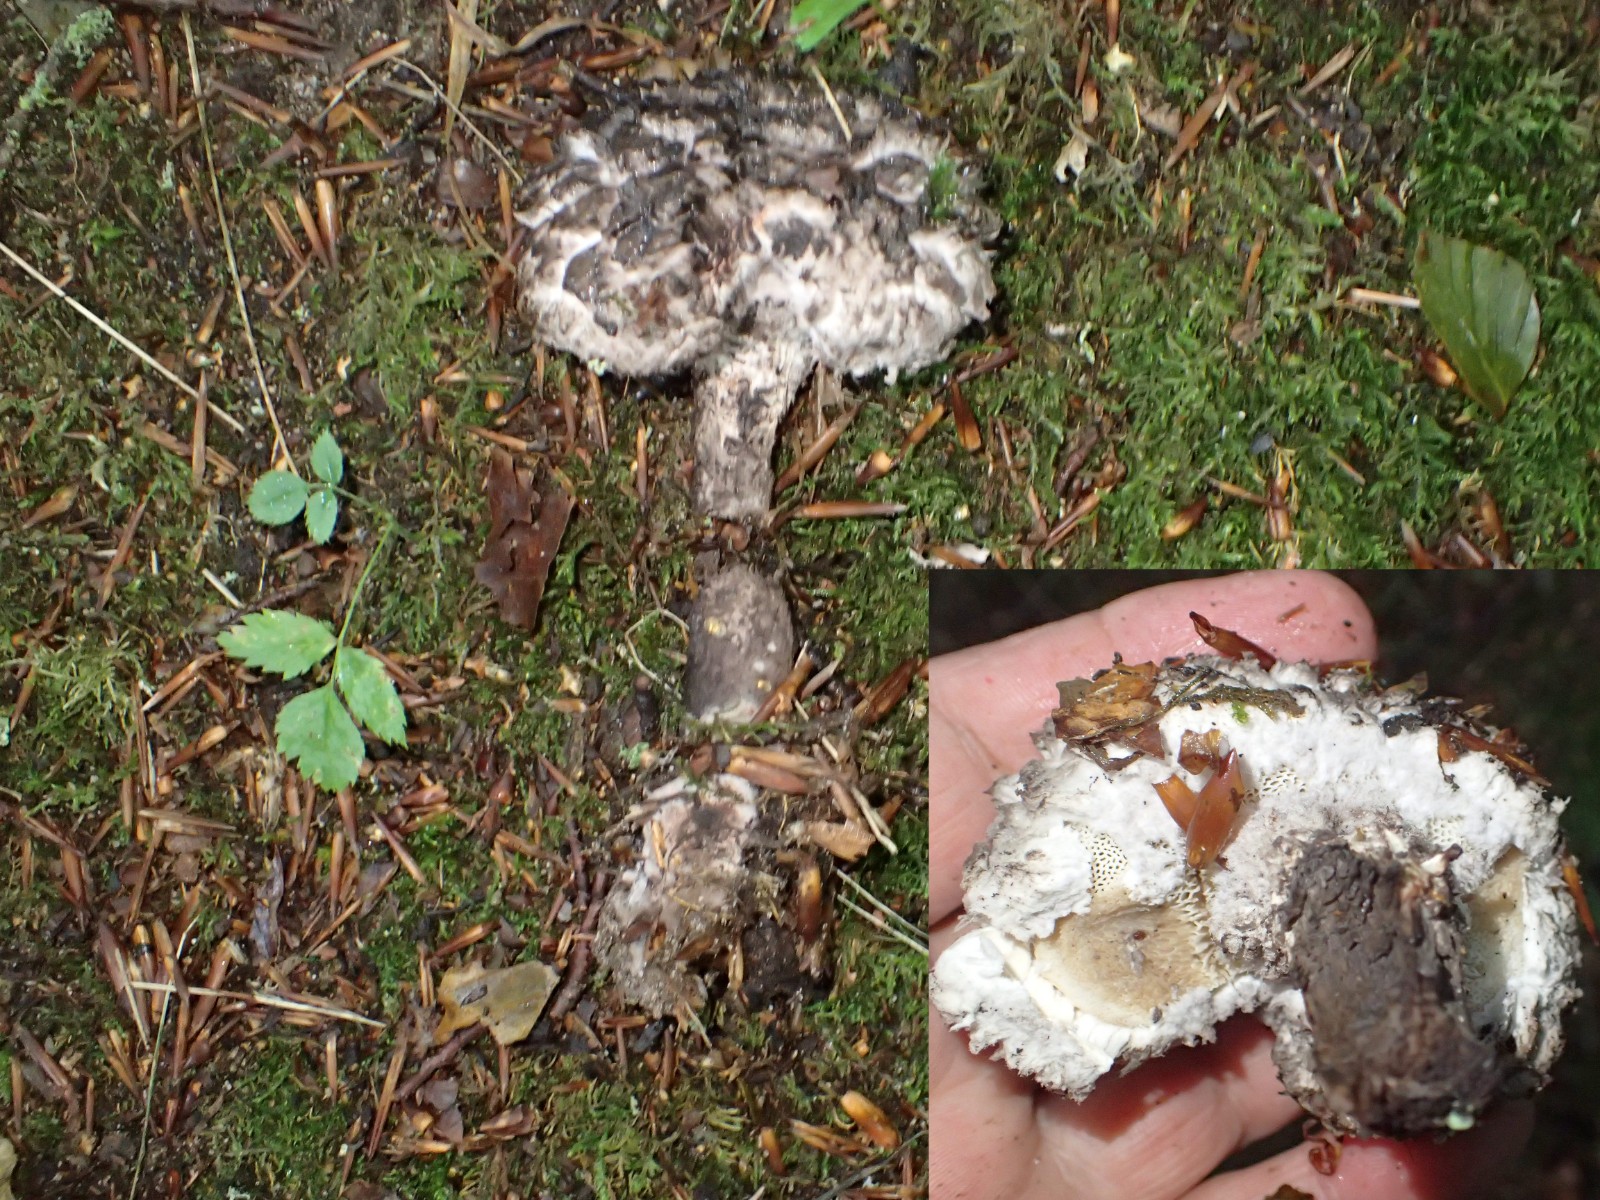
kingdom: Fungi
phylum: Basidiomycota
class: Agaricomycetes
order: Boletales
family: Boletaceae
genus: Strobilomyces
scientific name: Strobilomyces strobilaceus
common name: koglerørhat
